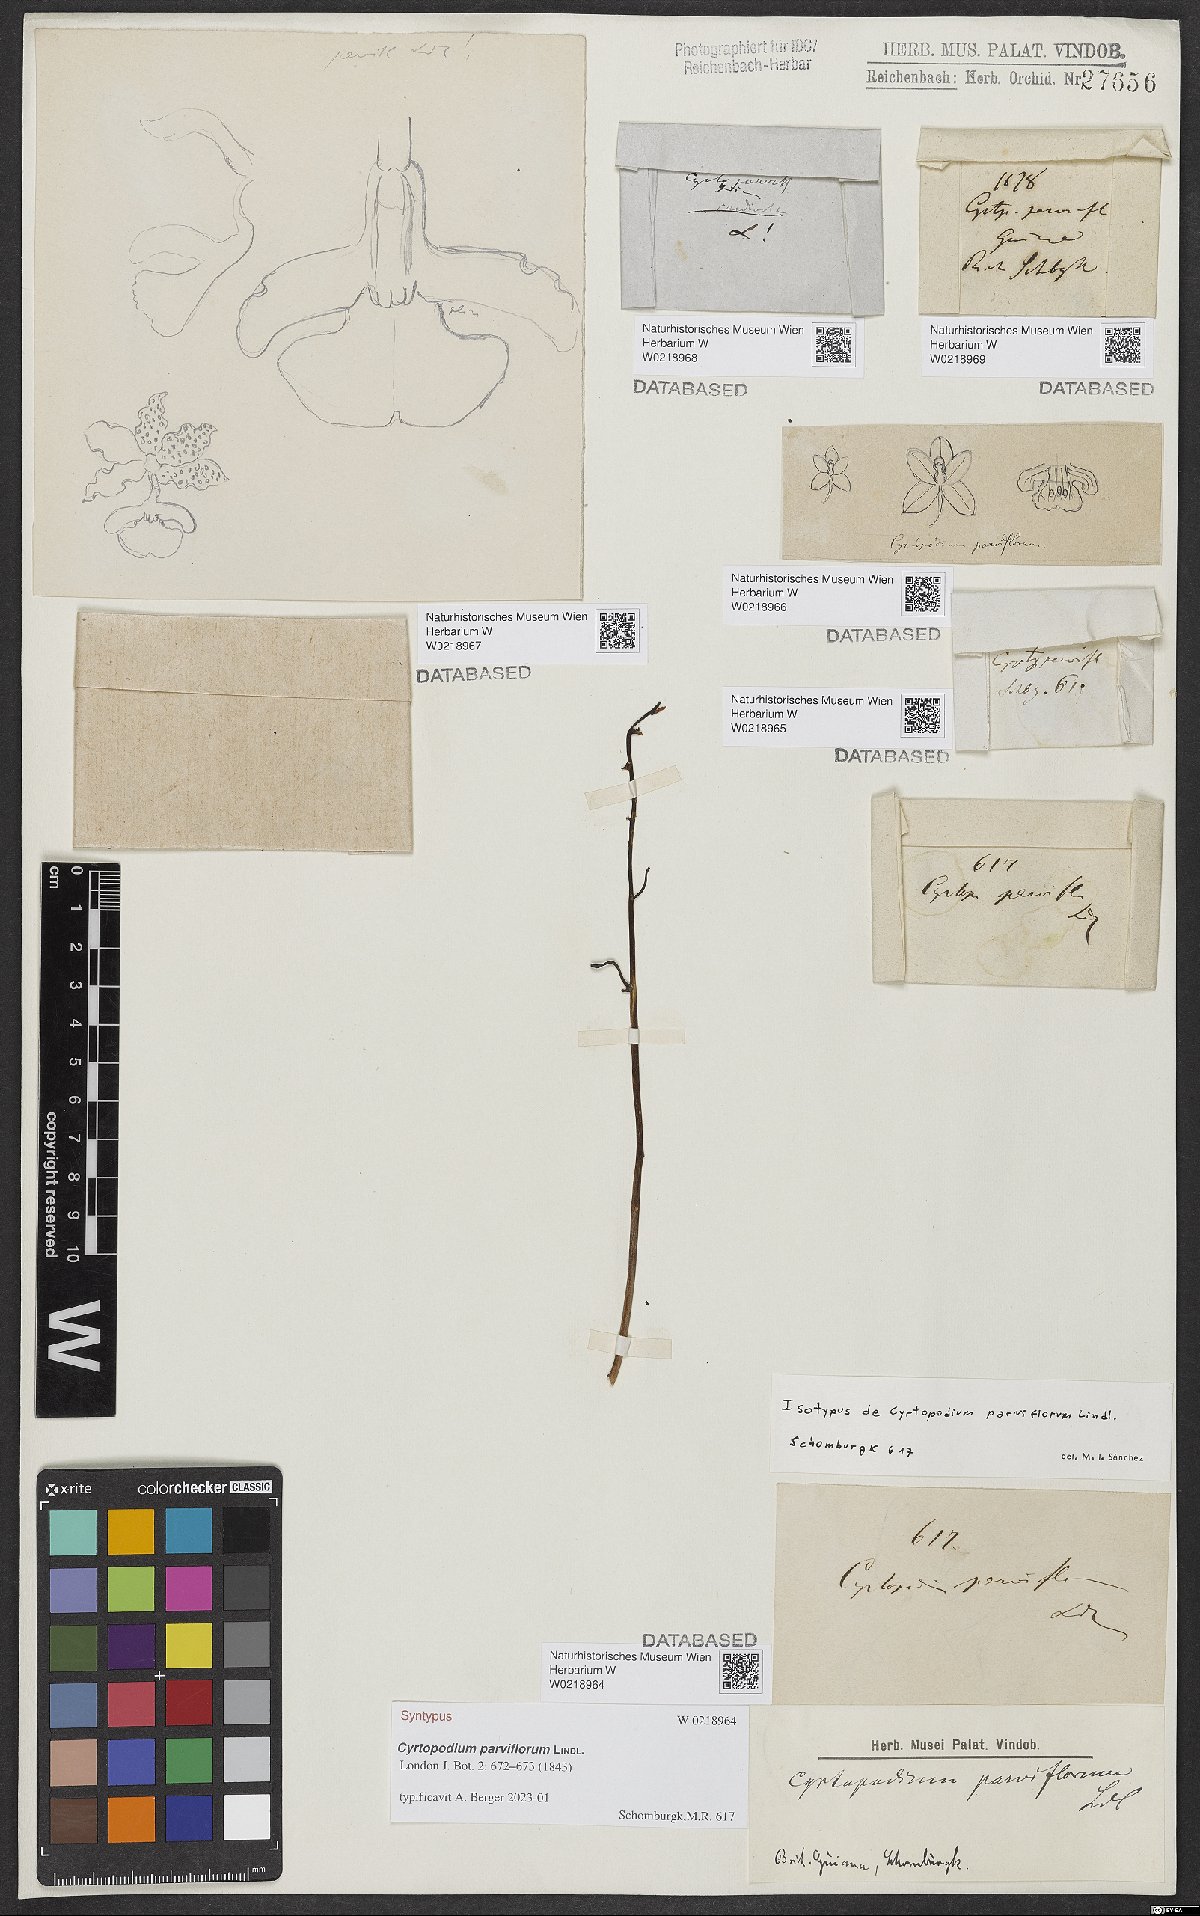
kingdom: Plantae
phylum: Tracheophyta
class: Liliopsida
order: Asparagales
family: Orchidaceae
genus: Cyrtopodium
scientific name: Cyrtopodium parviflorum
